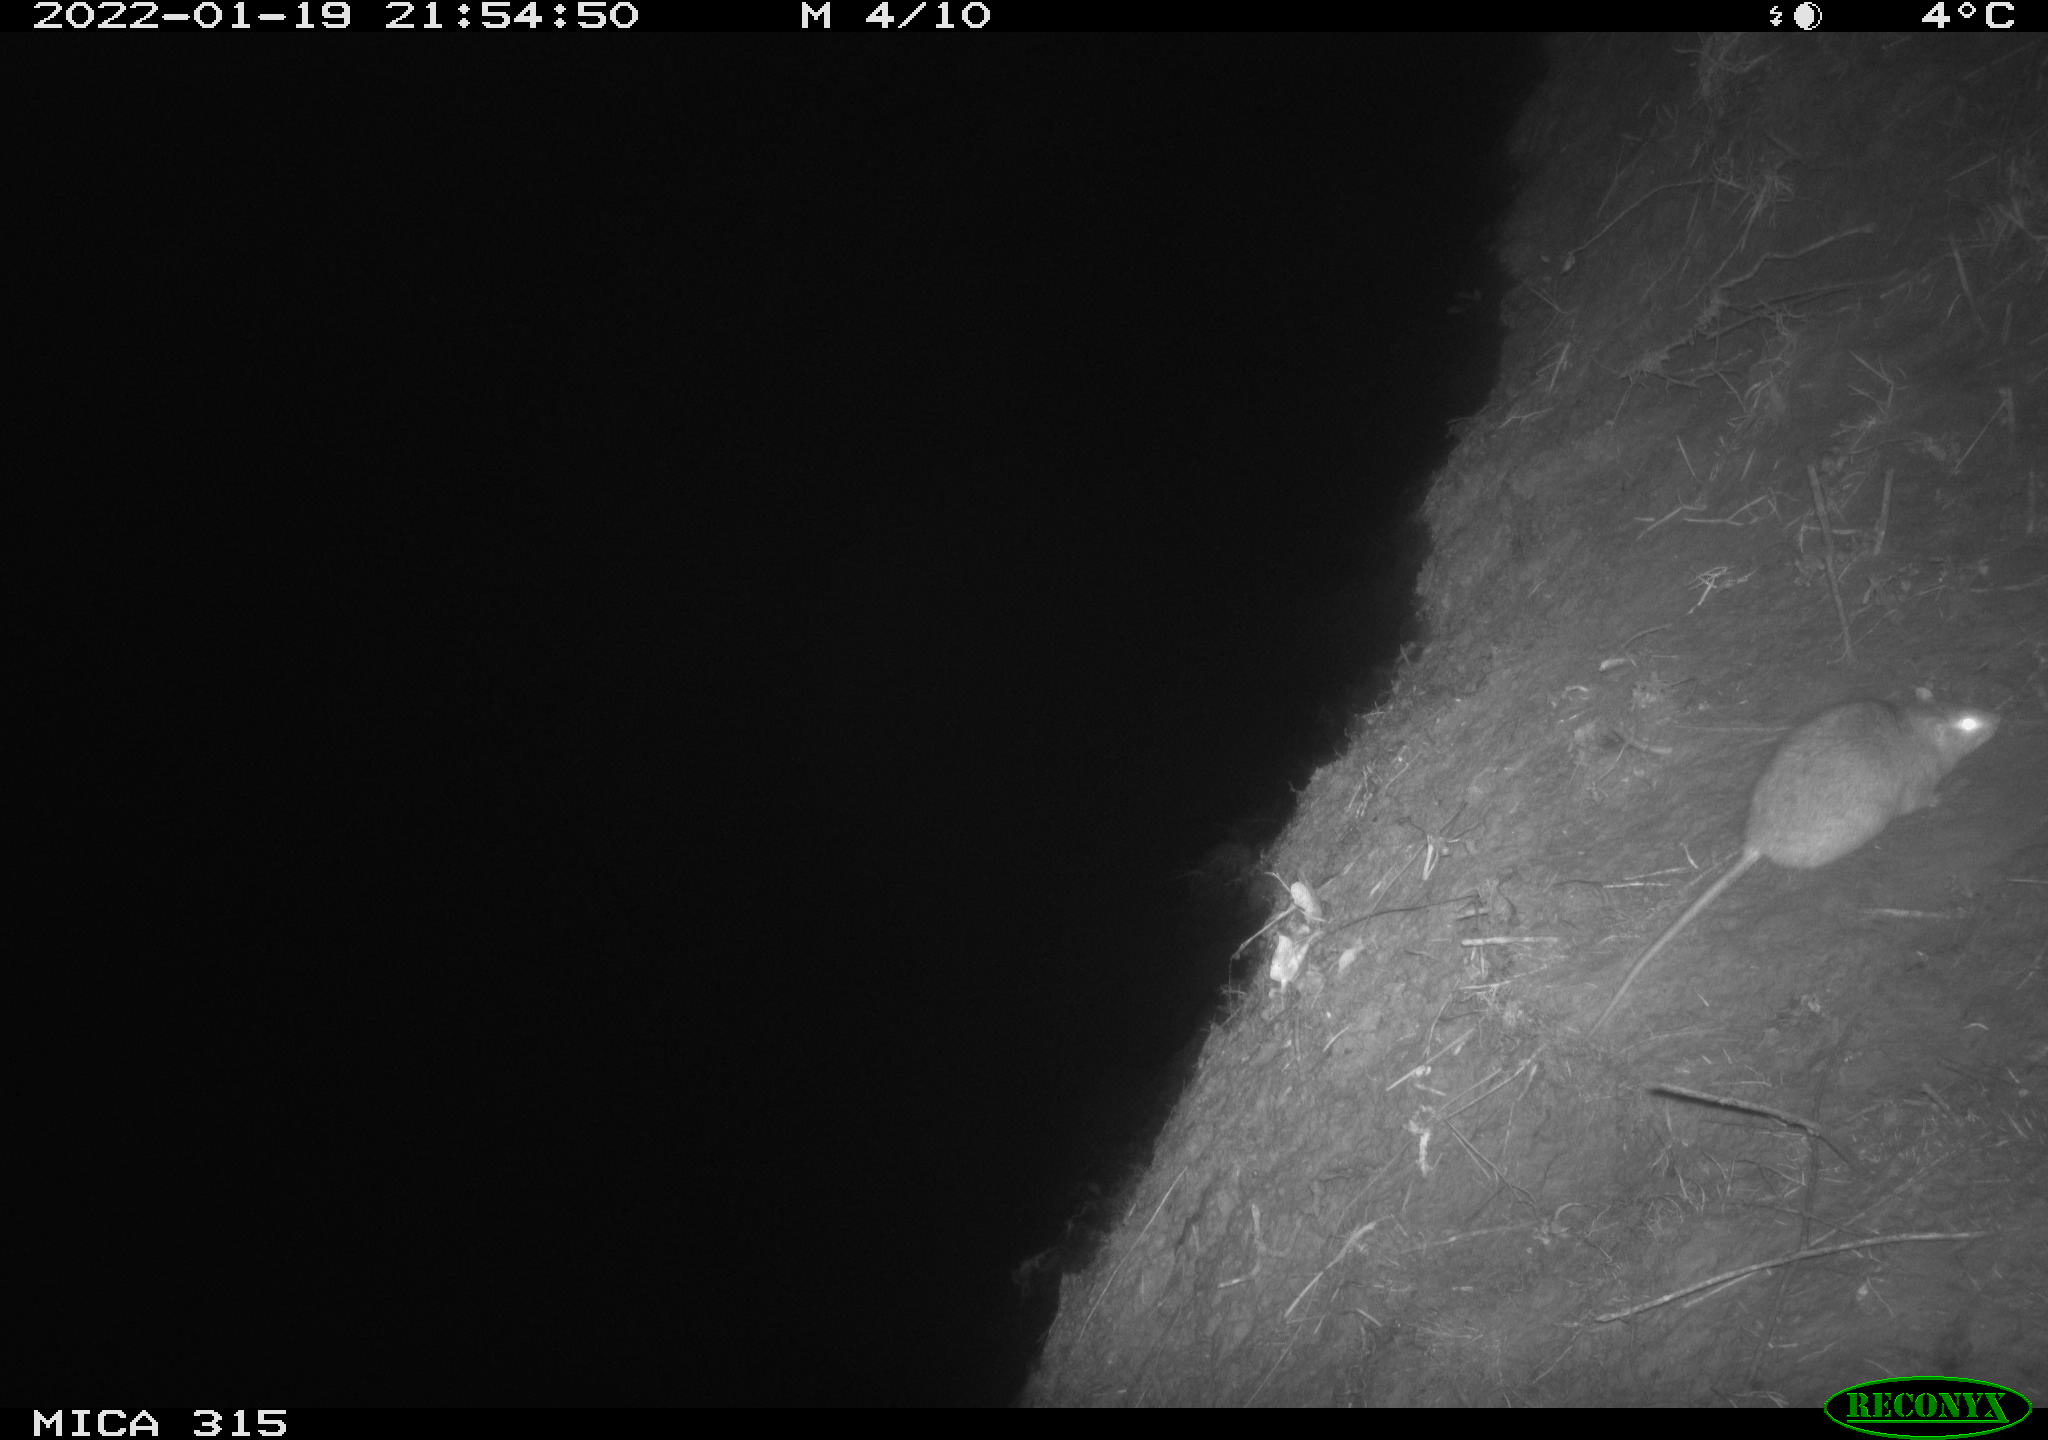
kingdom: Animalia
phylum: Chordata
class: Mammalia
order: Rodentia
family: Muridae
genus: Rattus
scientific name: Rattus norvegicus
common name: Brown rat
